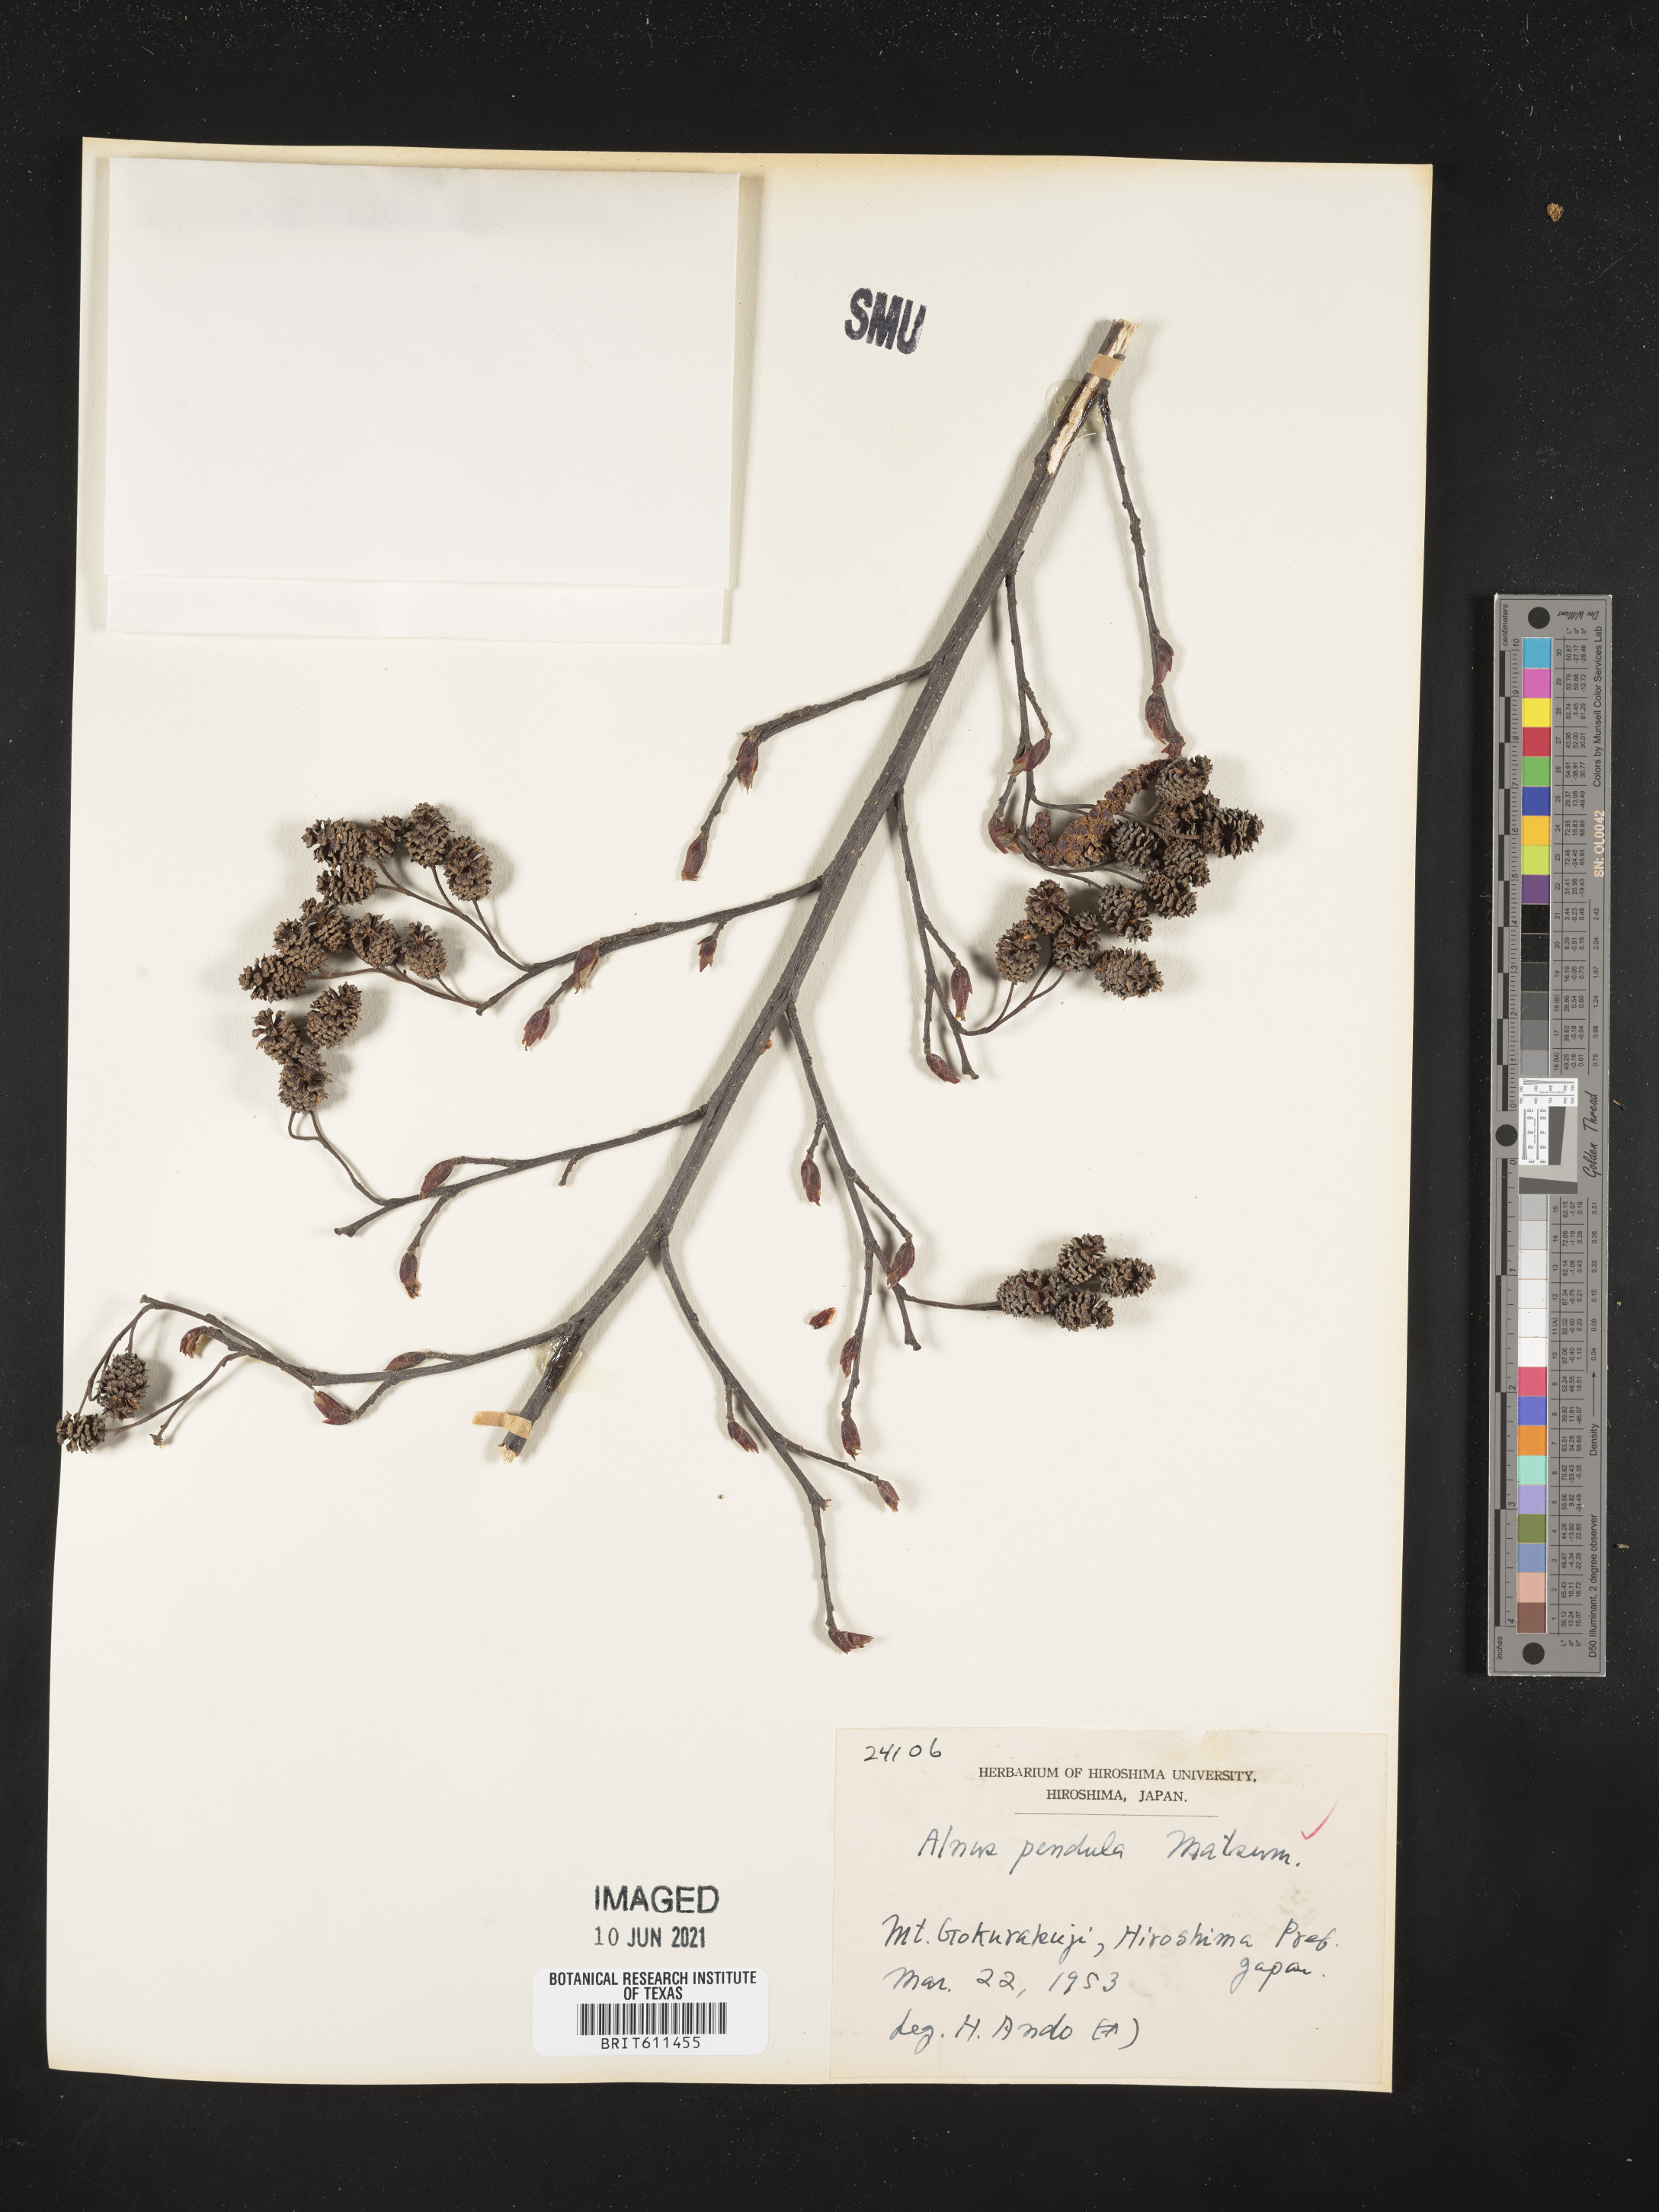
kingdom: Plantae
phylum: Tracheophyta
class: Magnoliopsida
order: Fagales
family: Betulaceae
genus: Alnus
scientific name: Alnus pendula
